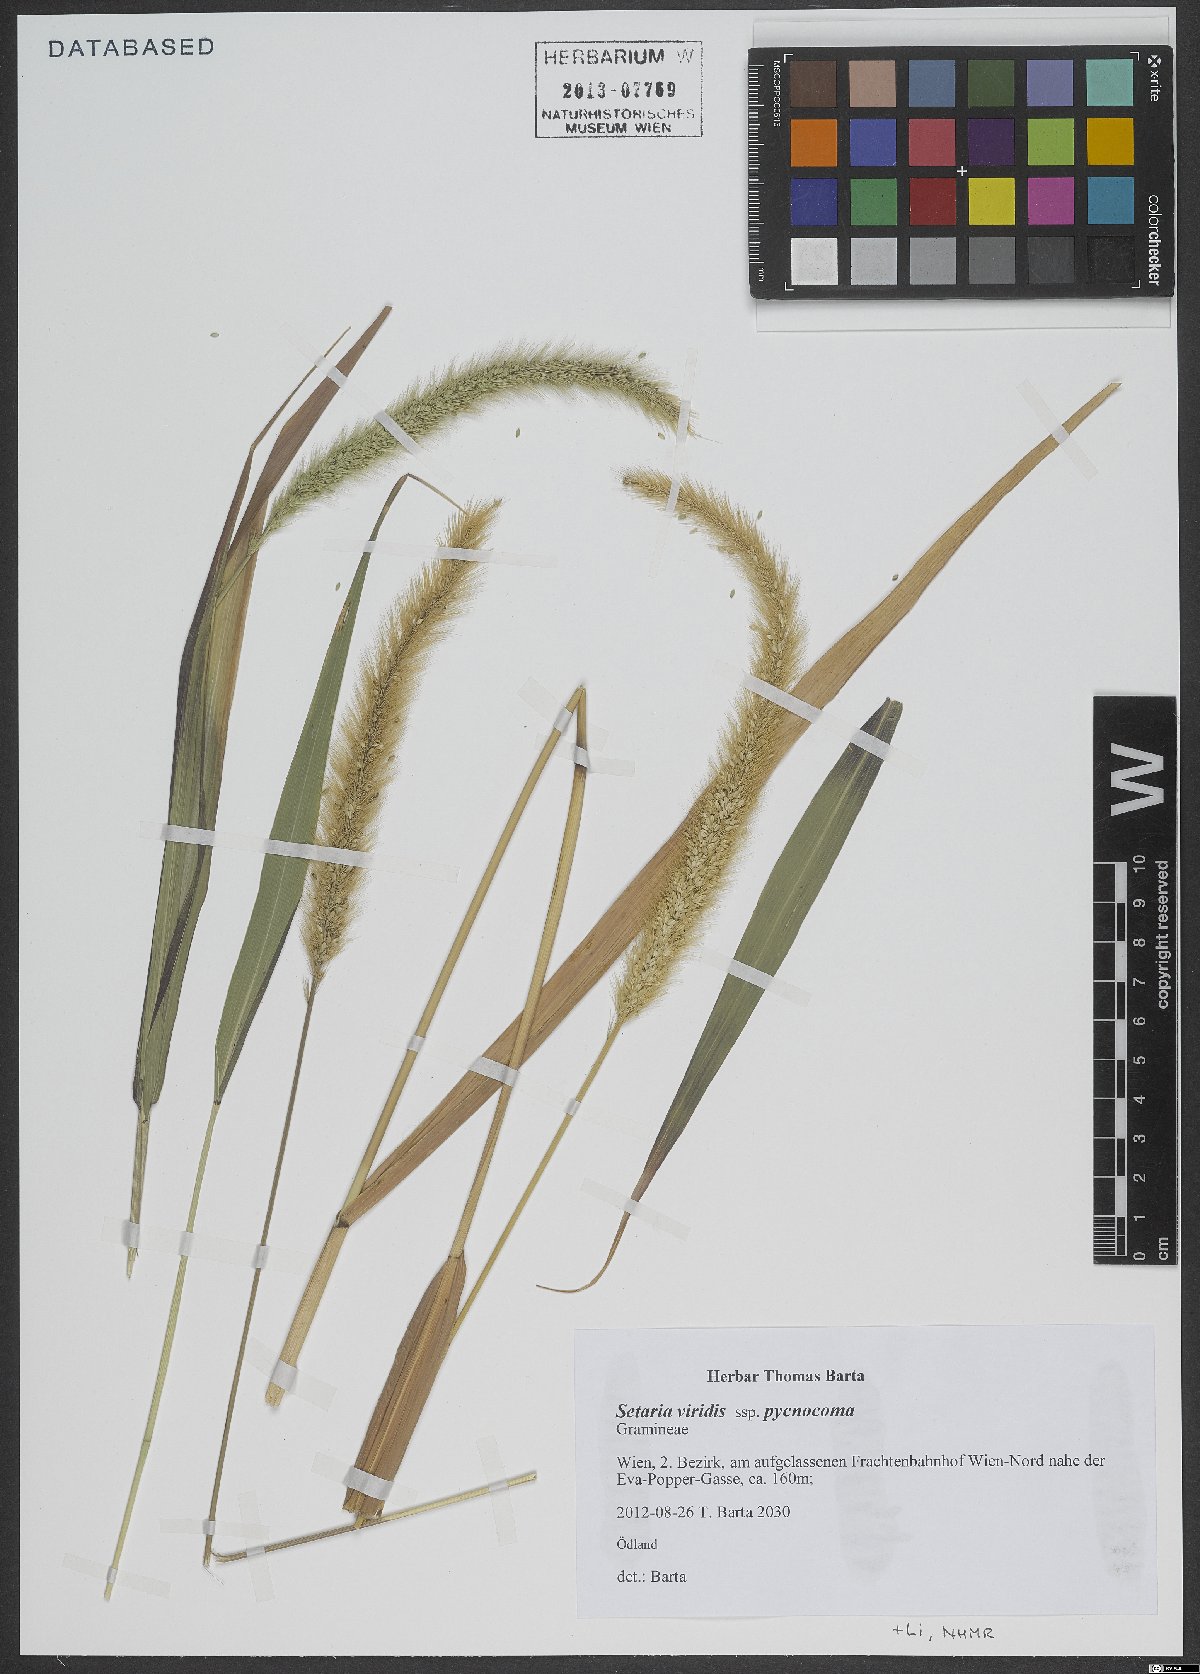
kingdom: Plantae
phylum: Tracheophyta
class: Liliopsida
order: Poales
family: Poaceae
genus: Setaria
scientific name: Setaria viridis
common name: Green bristlegrass
